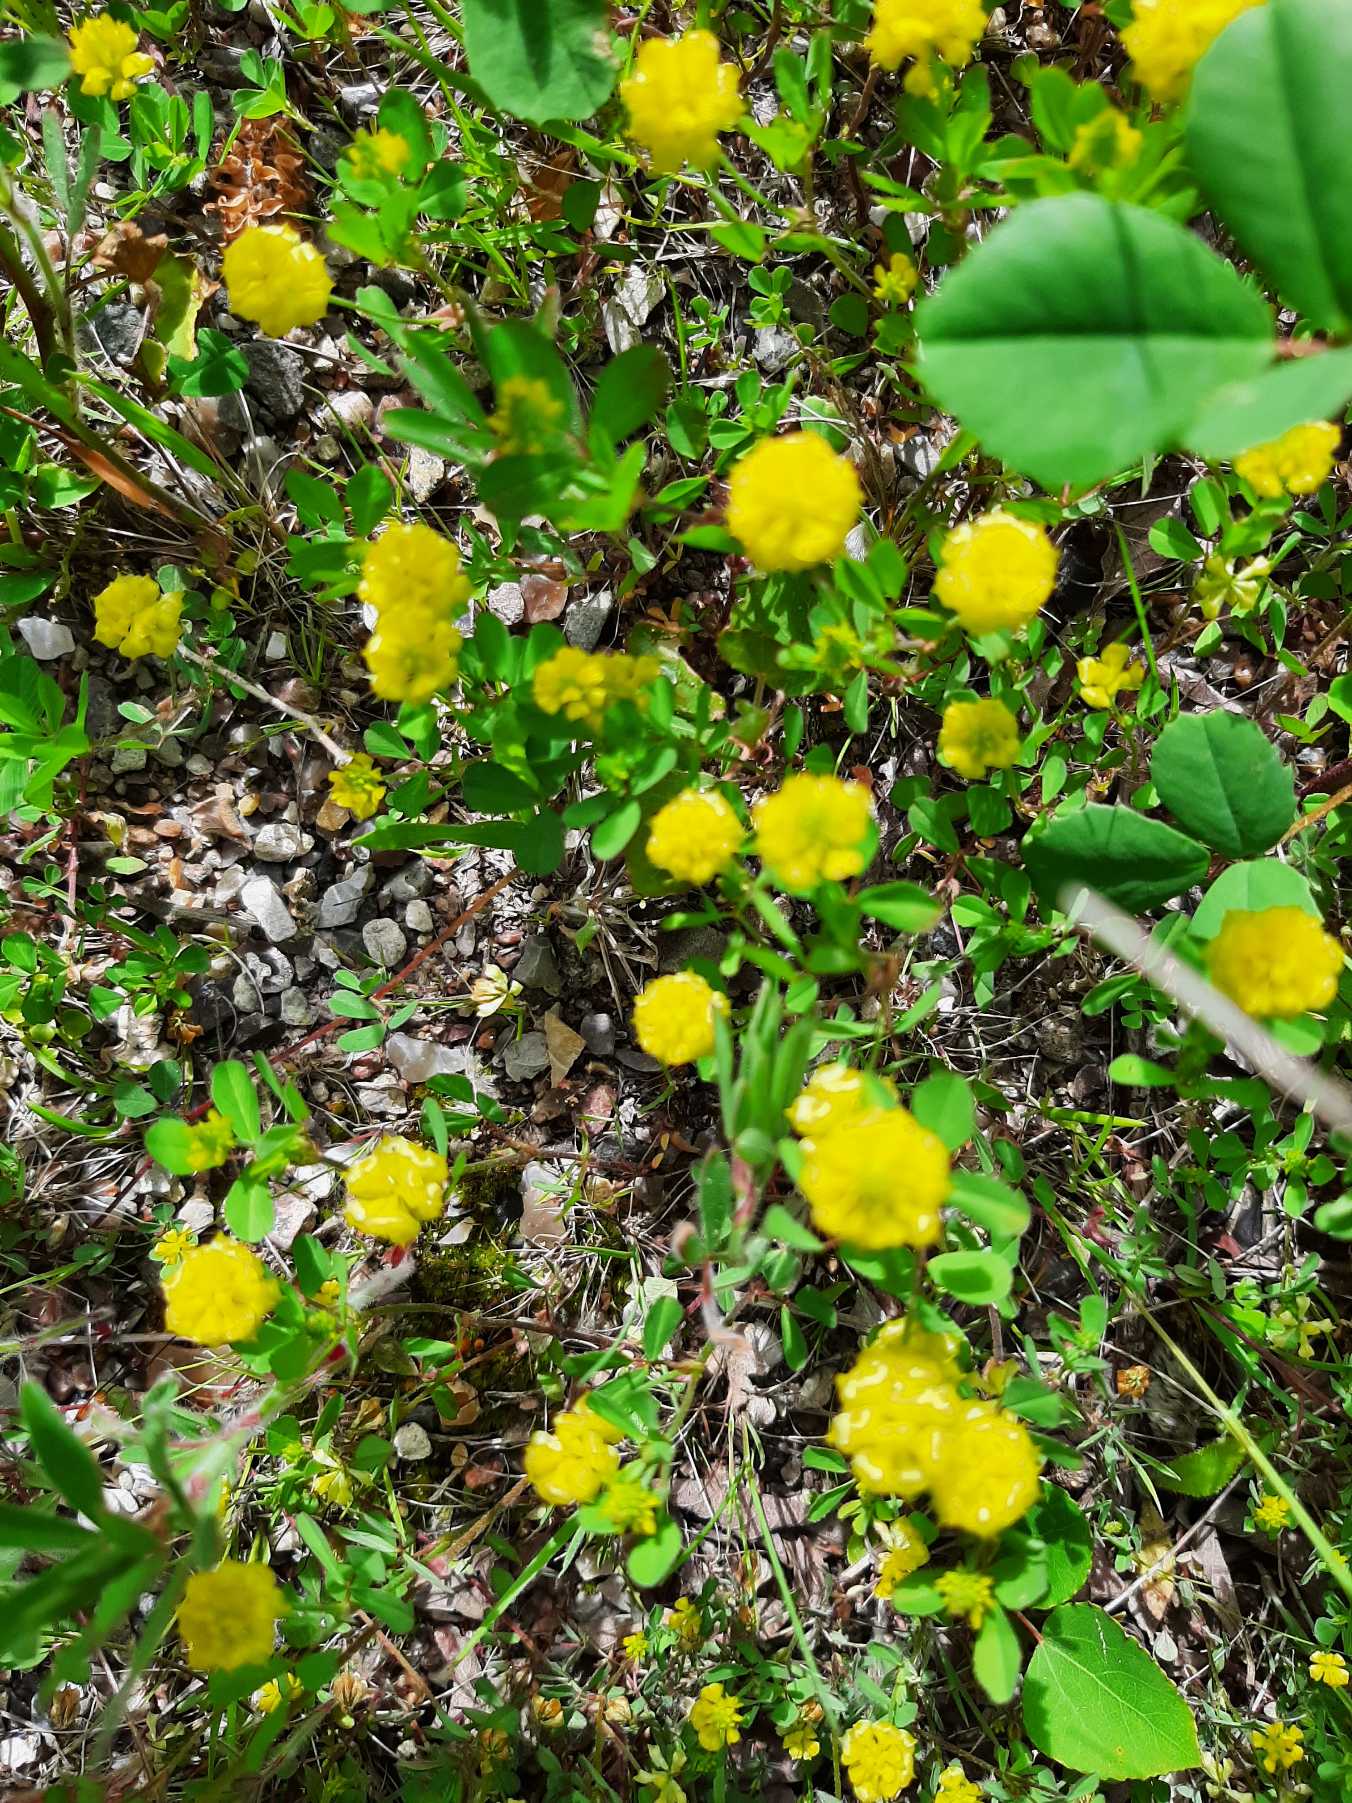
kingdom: Plantae
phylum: Tracheophyta
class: Magnoliopsida
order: Fabales
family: Fabaceae
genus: Trifolium
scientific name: Trifolium campestre
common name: Gul kløver
